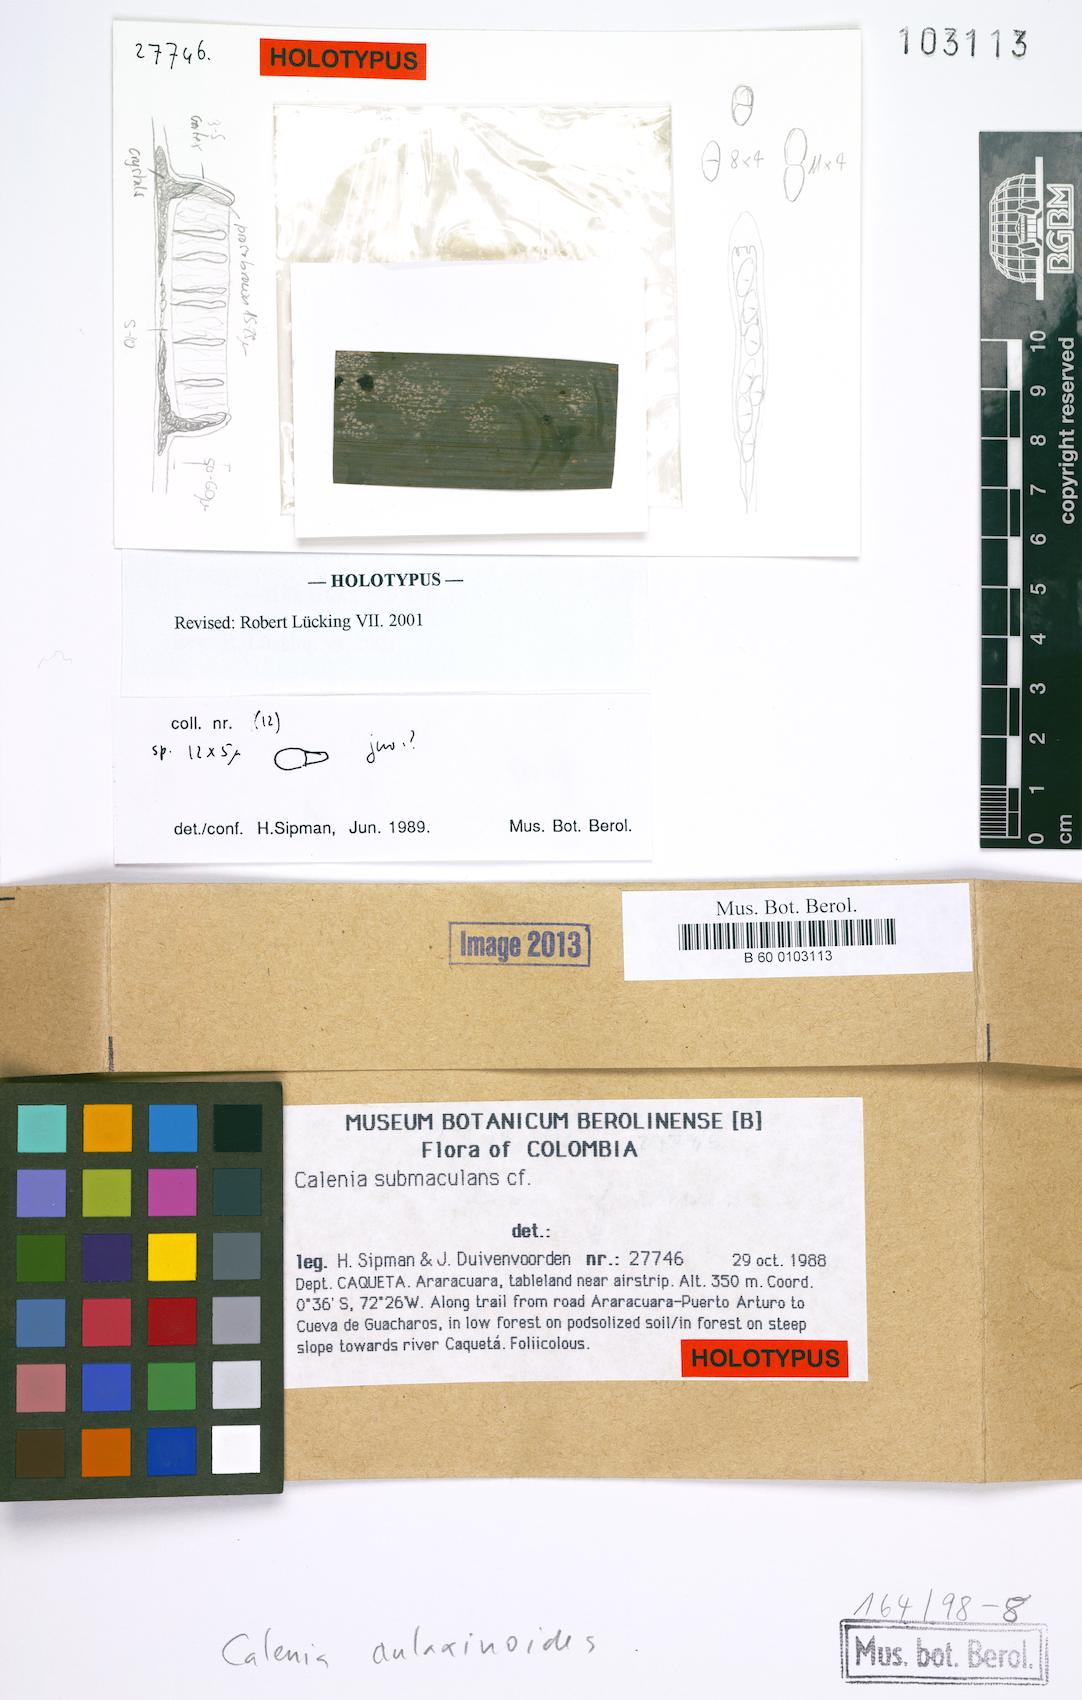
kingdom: Fungi
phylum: Ascomycota
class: Lecanoromycetes
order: Ostropales
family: Gomphillaceae
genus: Calenia
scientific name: Calenia
